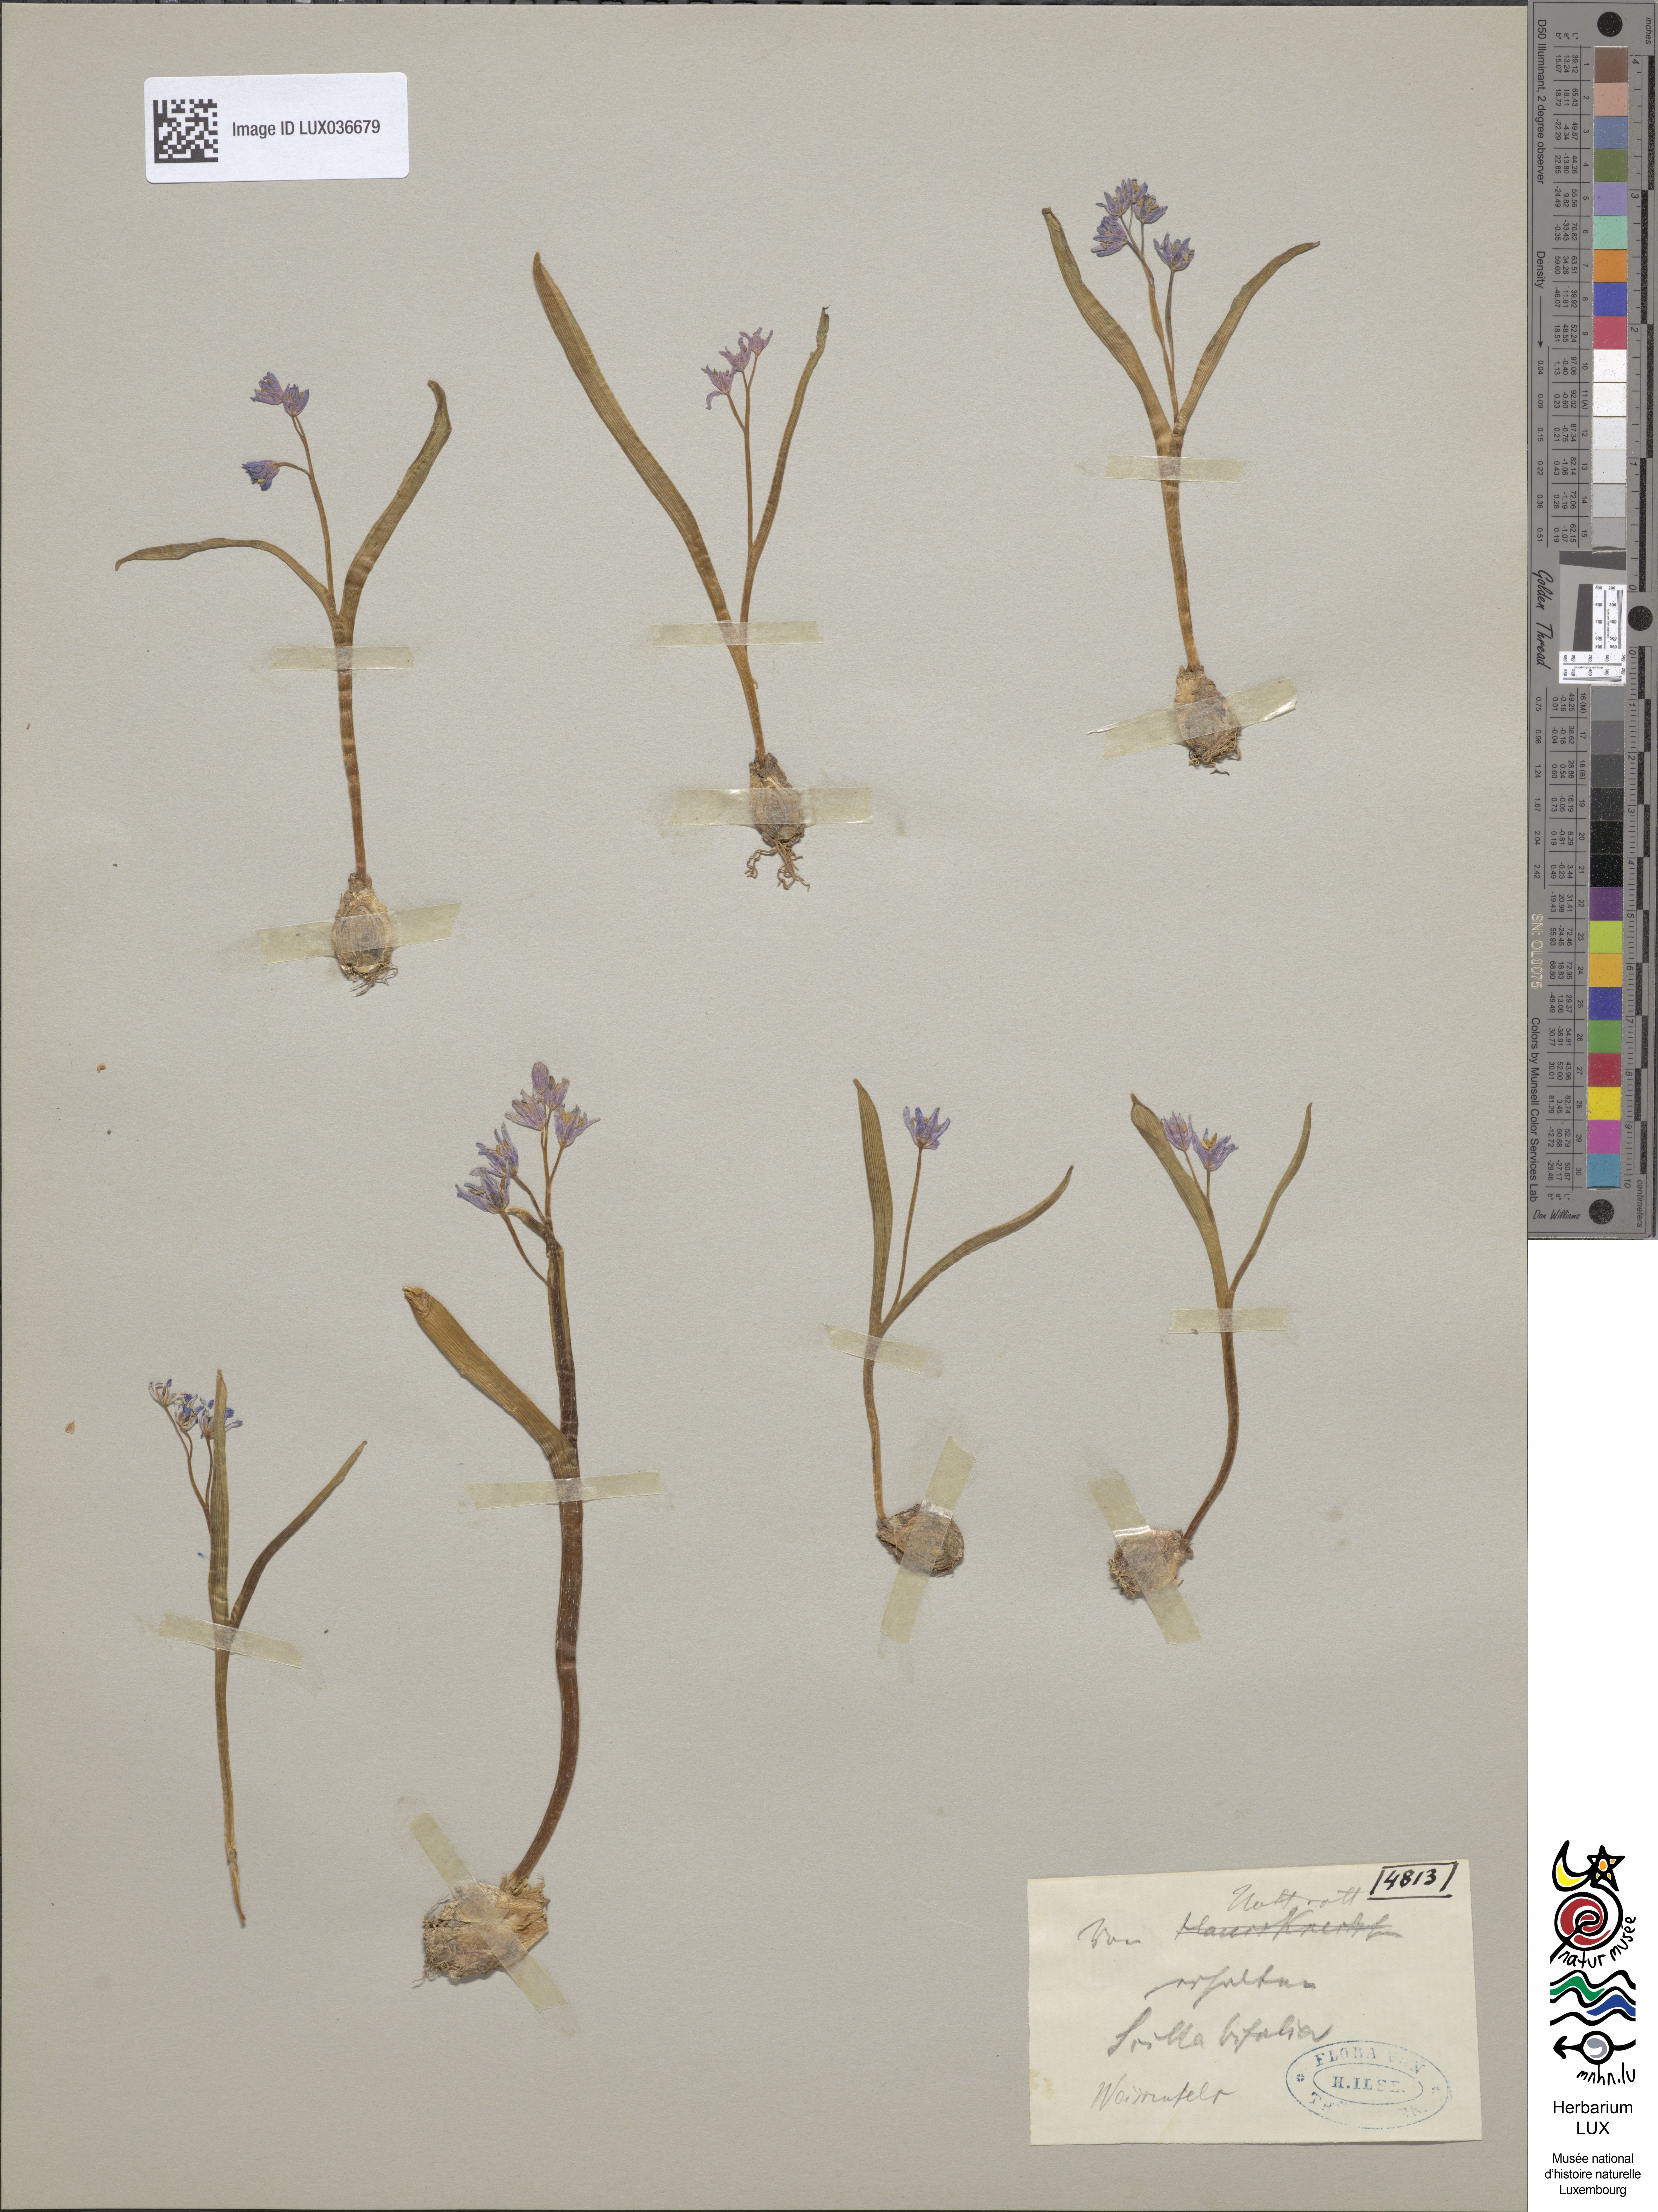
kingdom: Plantae
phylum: Tracheophyta
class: Liliopsida
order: Asparagales
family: Asparagaceae
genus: Scilla
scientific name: Scilla bifolia
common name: Alpine squill
